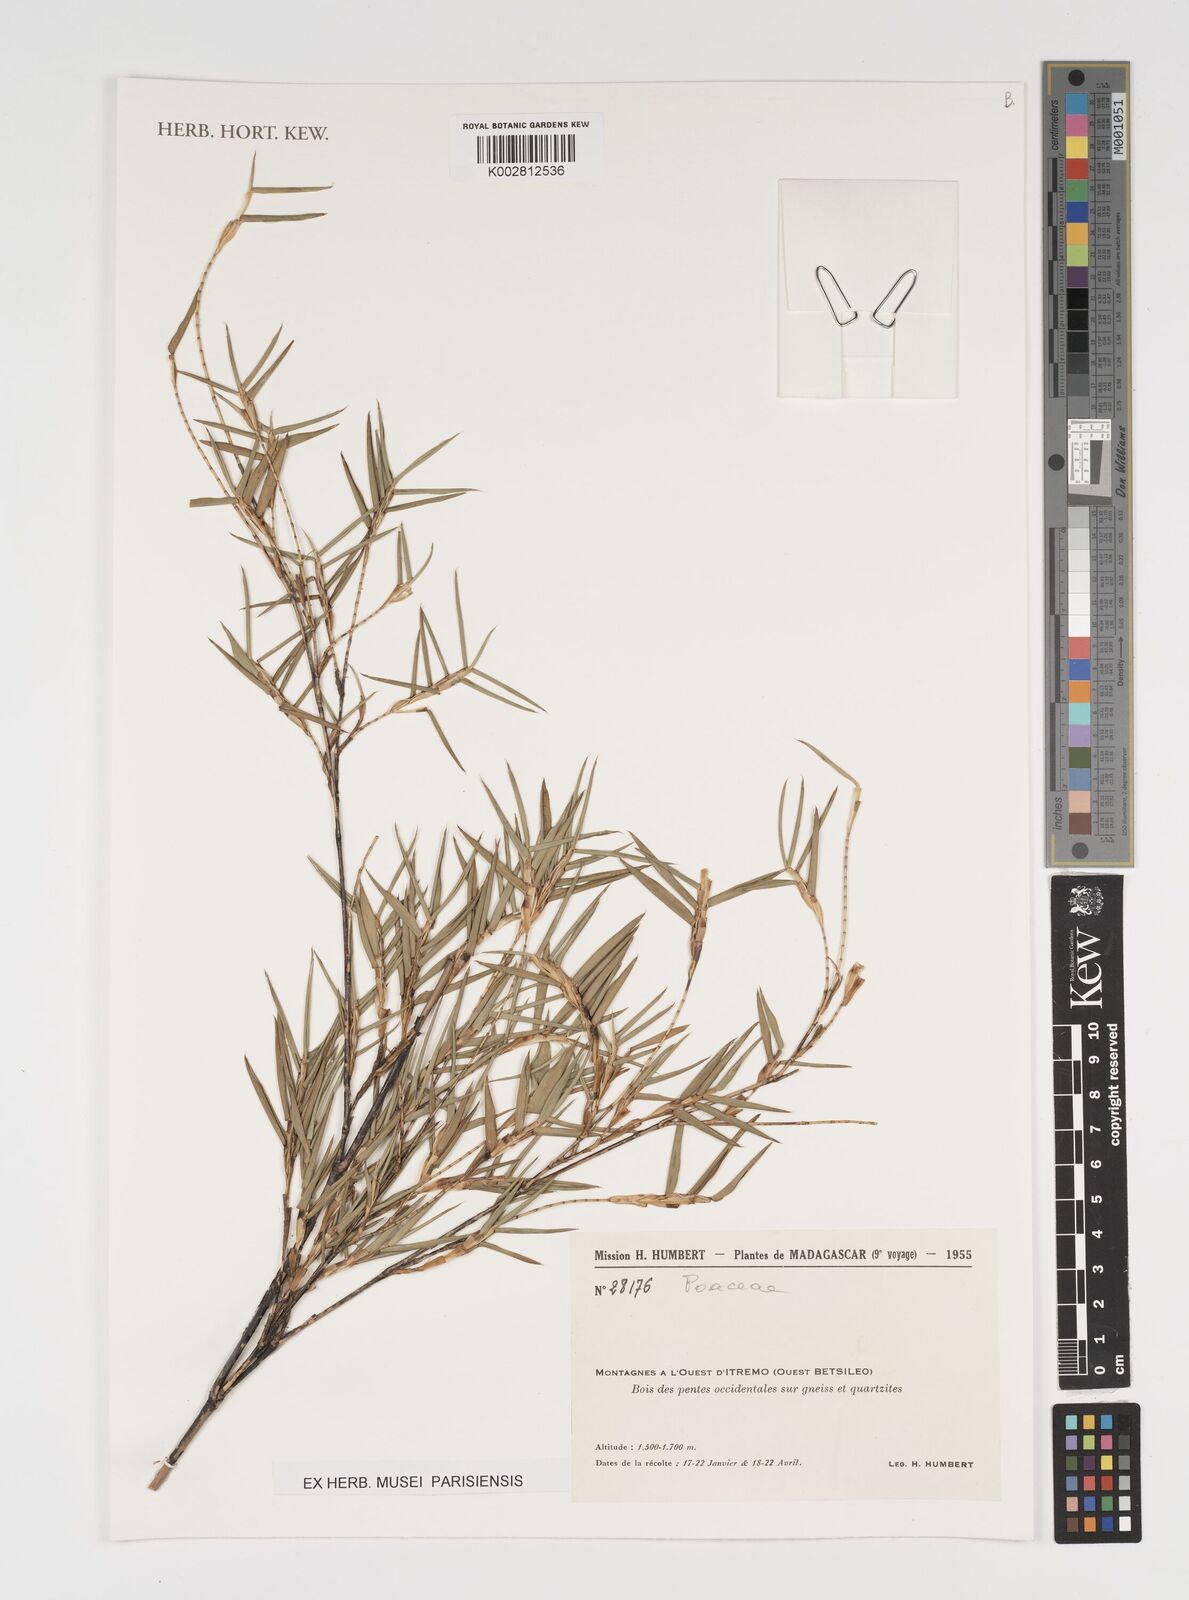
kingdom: Plantae
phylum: Tracheophyta
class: Liliopsida
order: Poales
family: Poaceae
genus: Arundinaria
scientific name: Arundinaria
